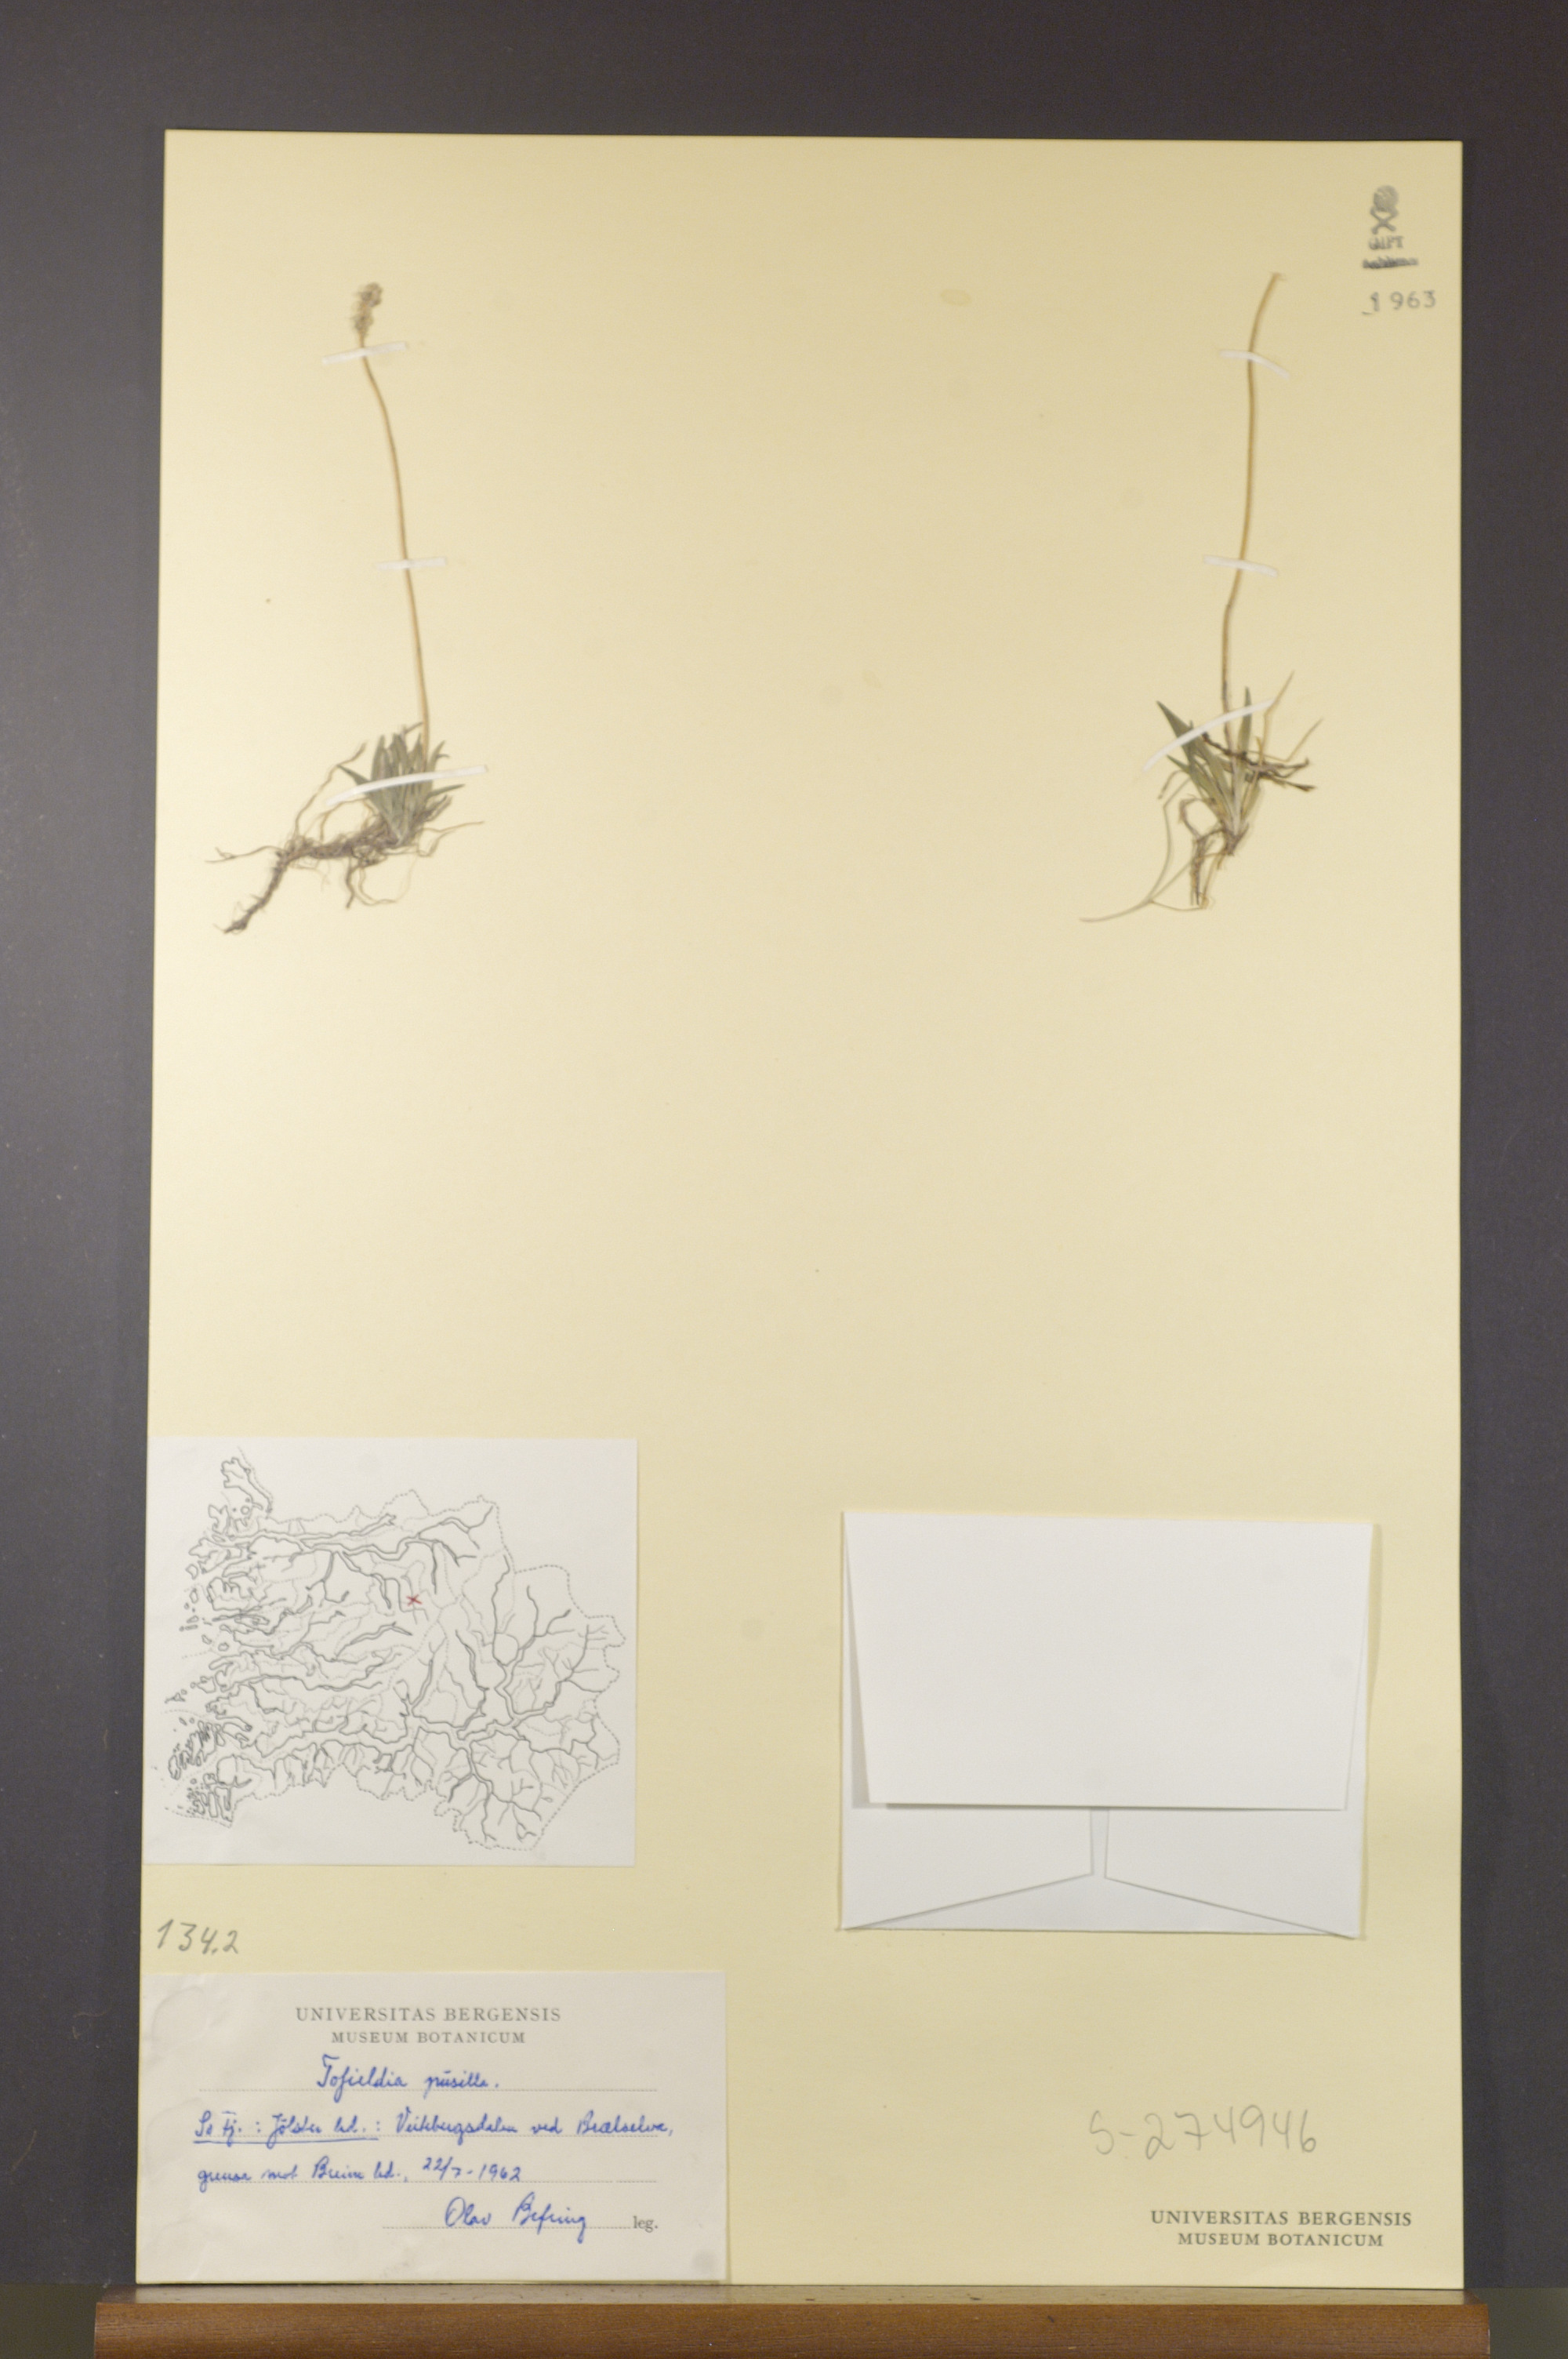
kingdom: Plantae
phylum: Tracheophyta
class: Liliopsida
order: Alismatales
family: Tofieldiaceae
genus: Tofieldia
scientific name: Tofieldia pusilla
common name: Scottish false asphodel
